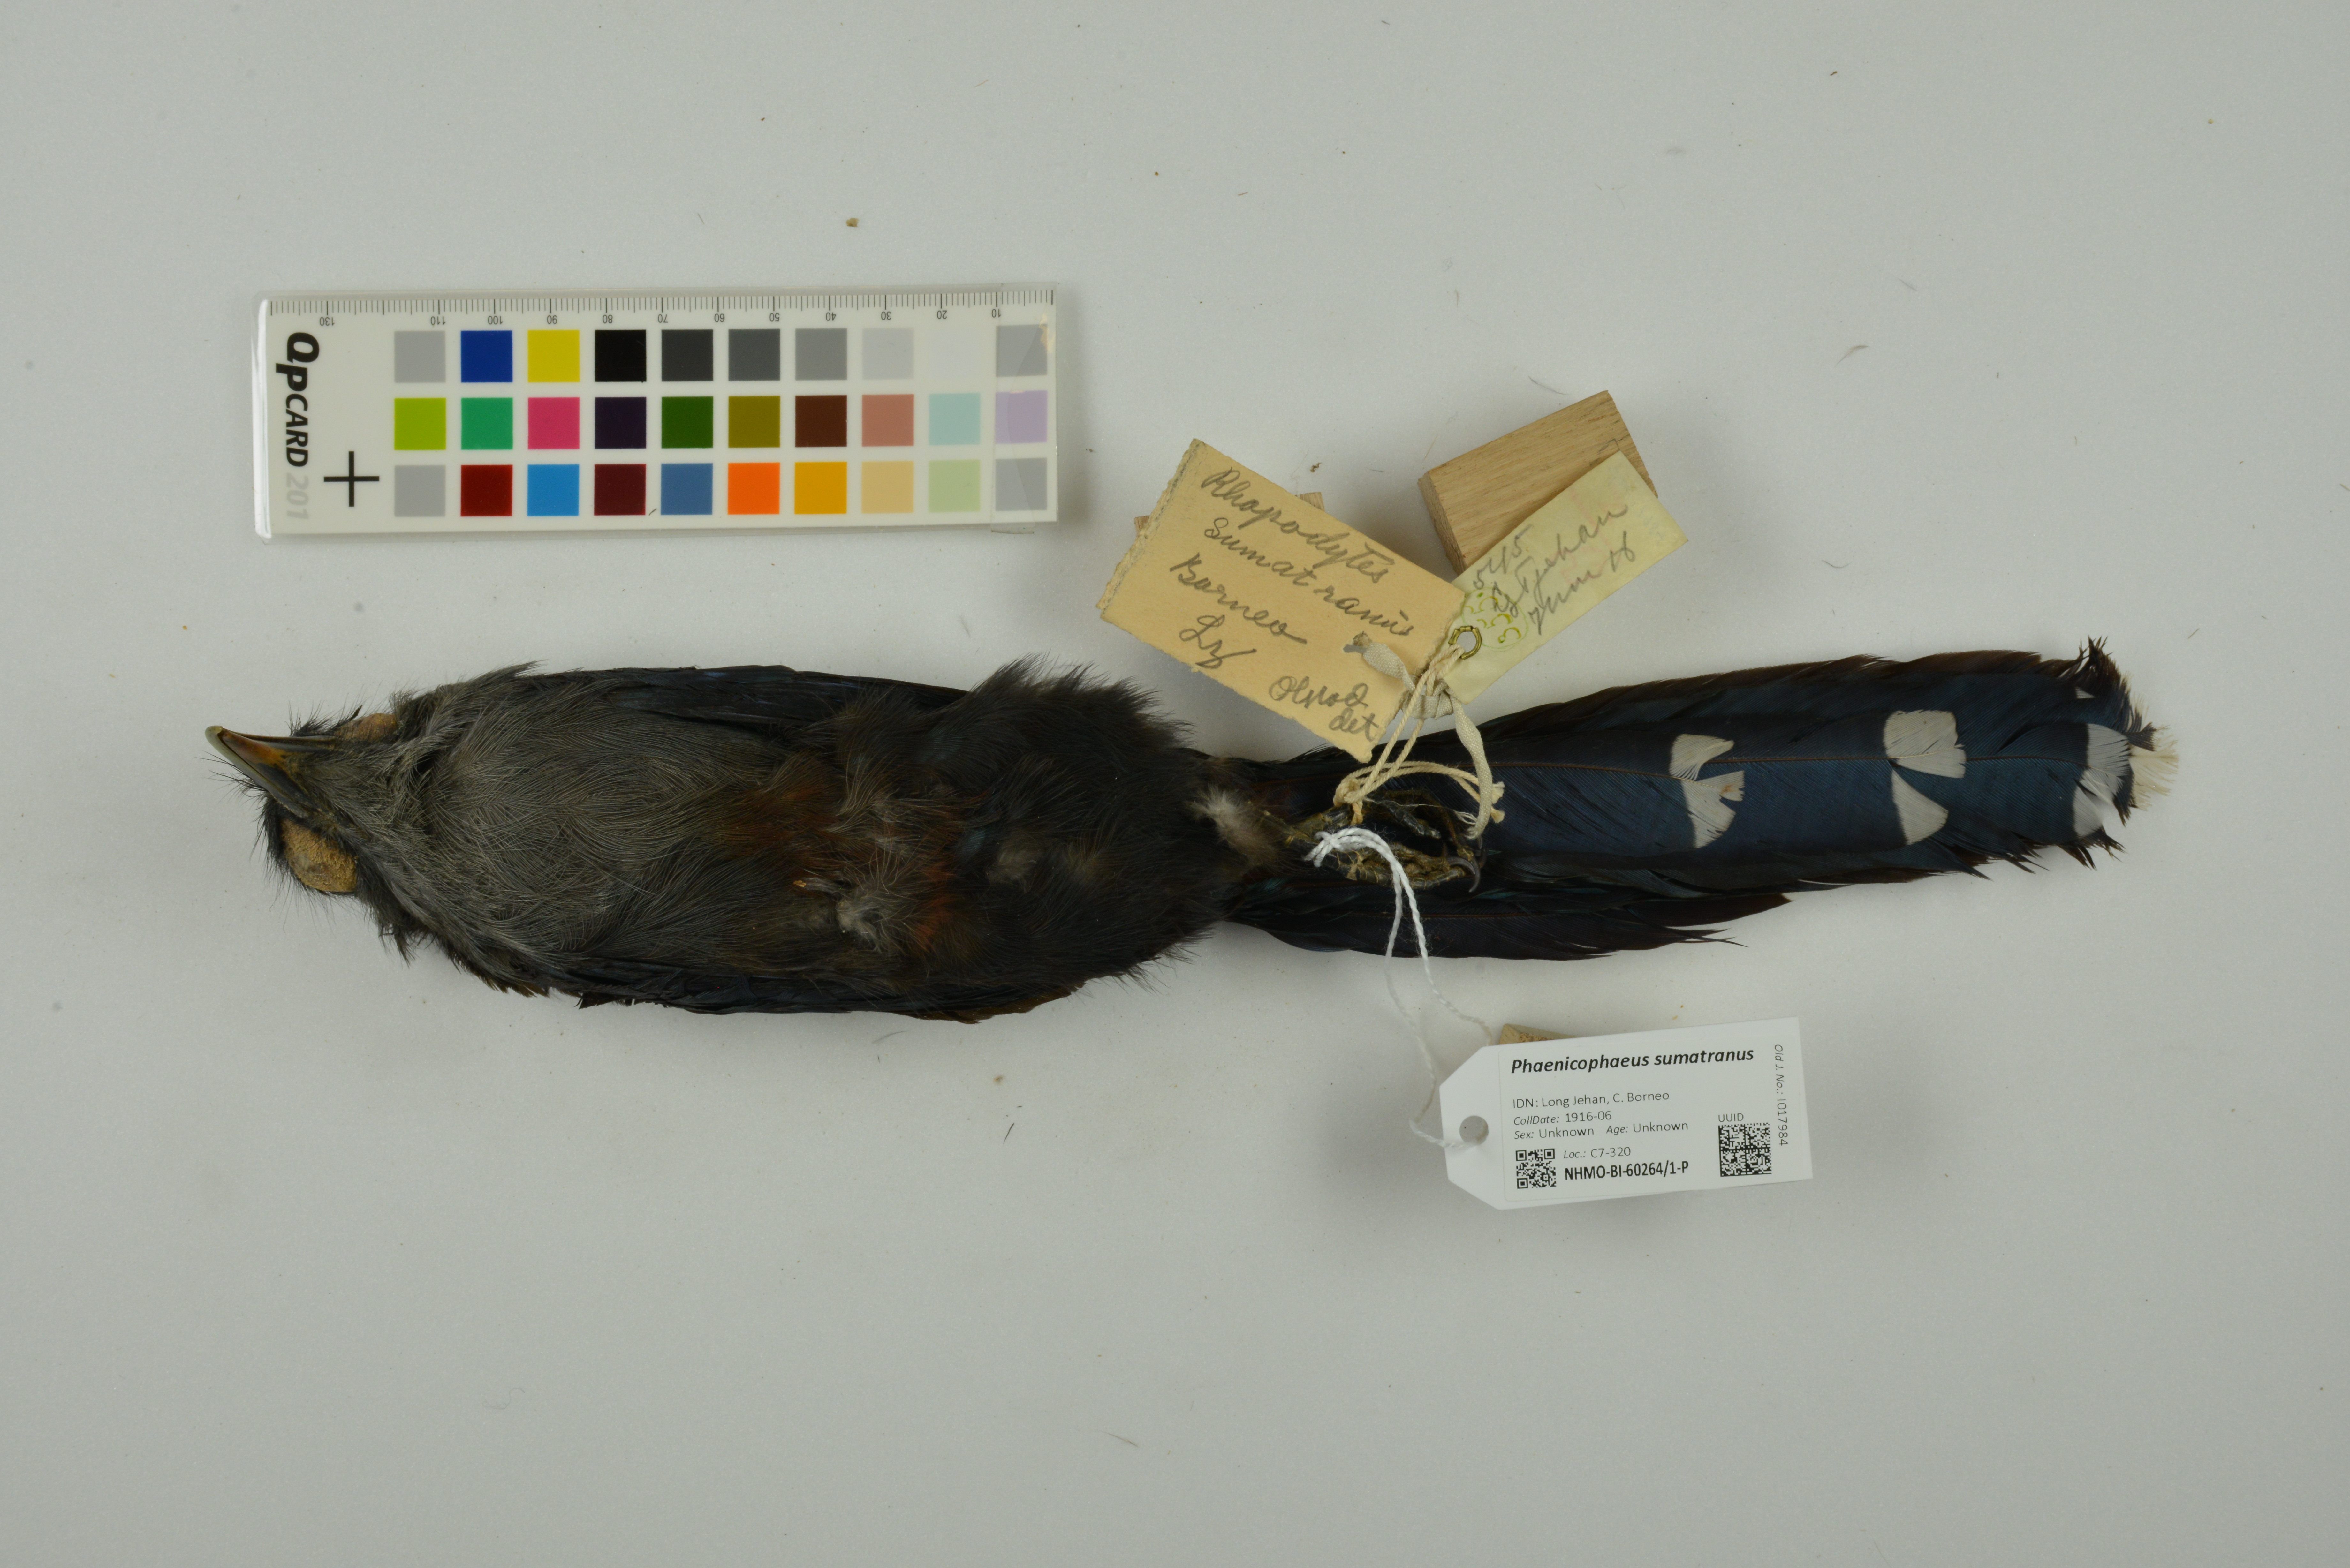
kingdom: Animalia
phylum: Chordata
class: Aves
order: Cuculiformes
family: Cuculidae
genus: Rhopodytes
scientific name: Rhopodytes sumatranus
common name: Rufous-bellied malcoha
